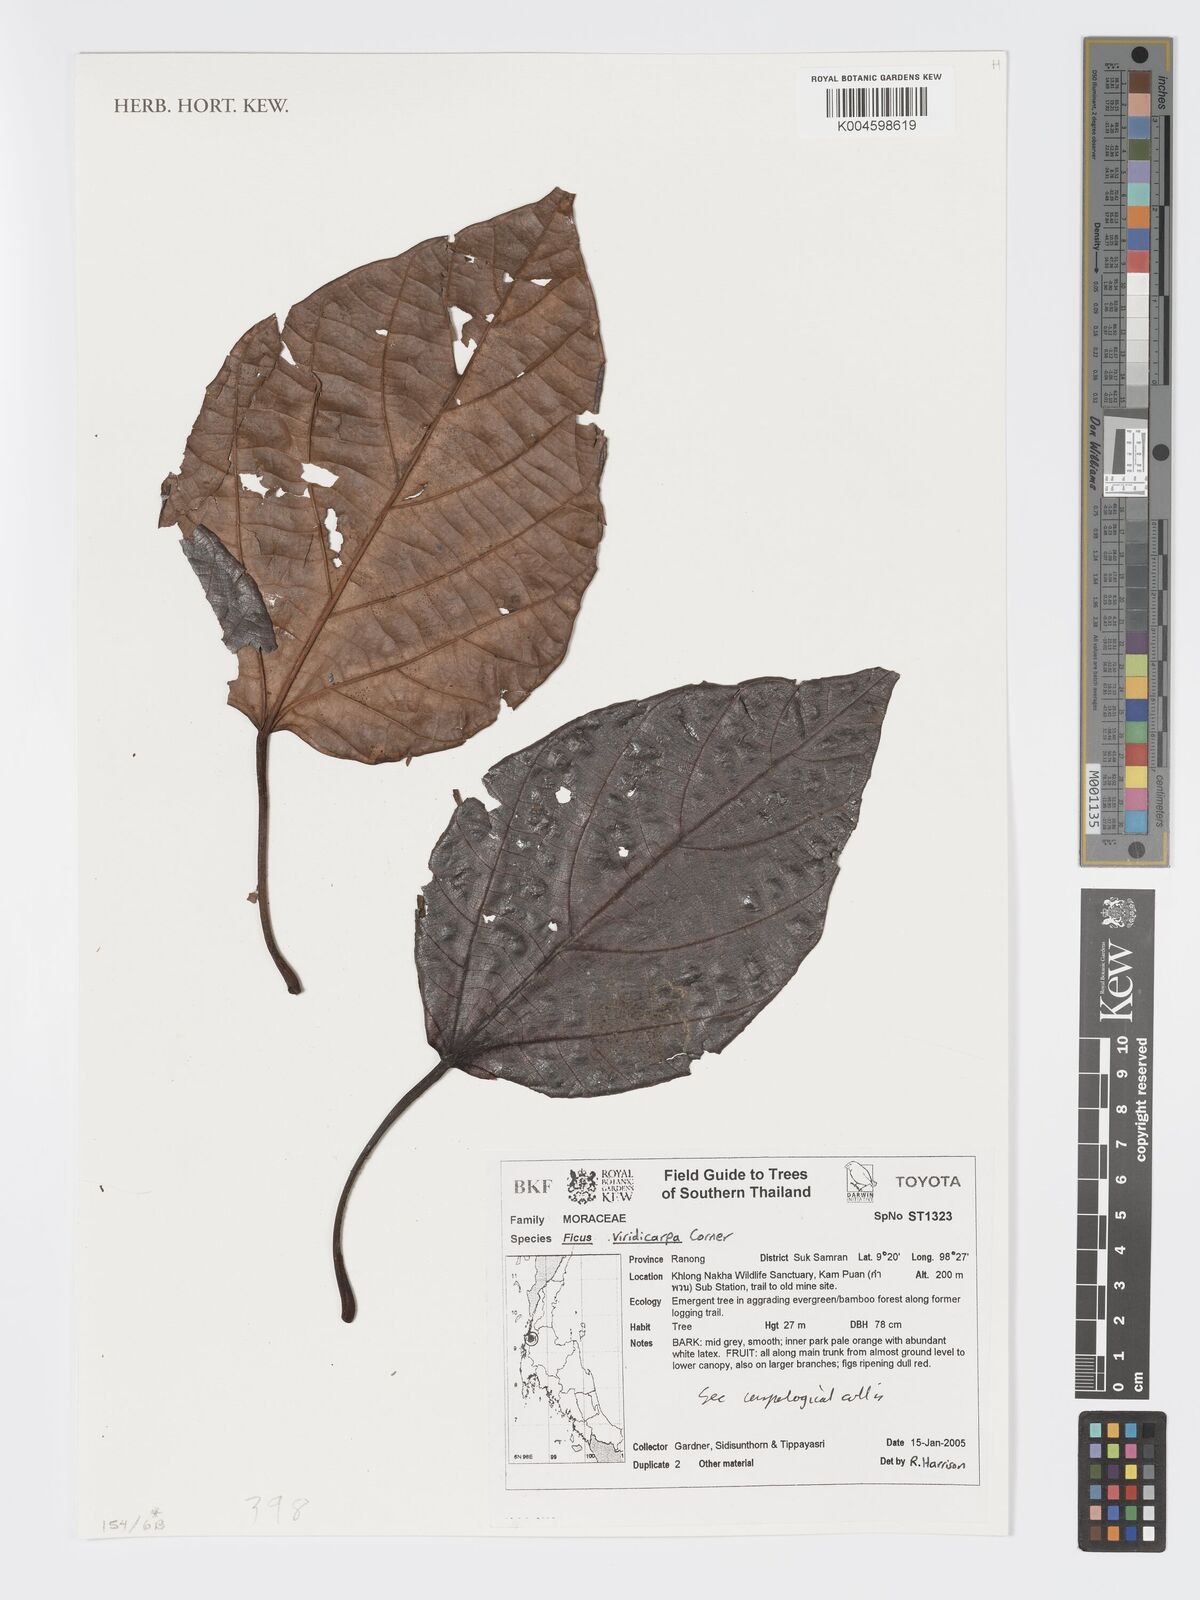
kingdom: Plantae
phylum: Tracheophyta
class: Magnoliopsida
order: Rosales
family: Moraceae
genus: Ficus
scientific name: Ficus variegata
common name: Variegated fig
